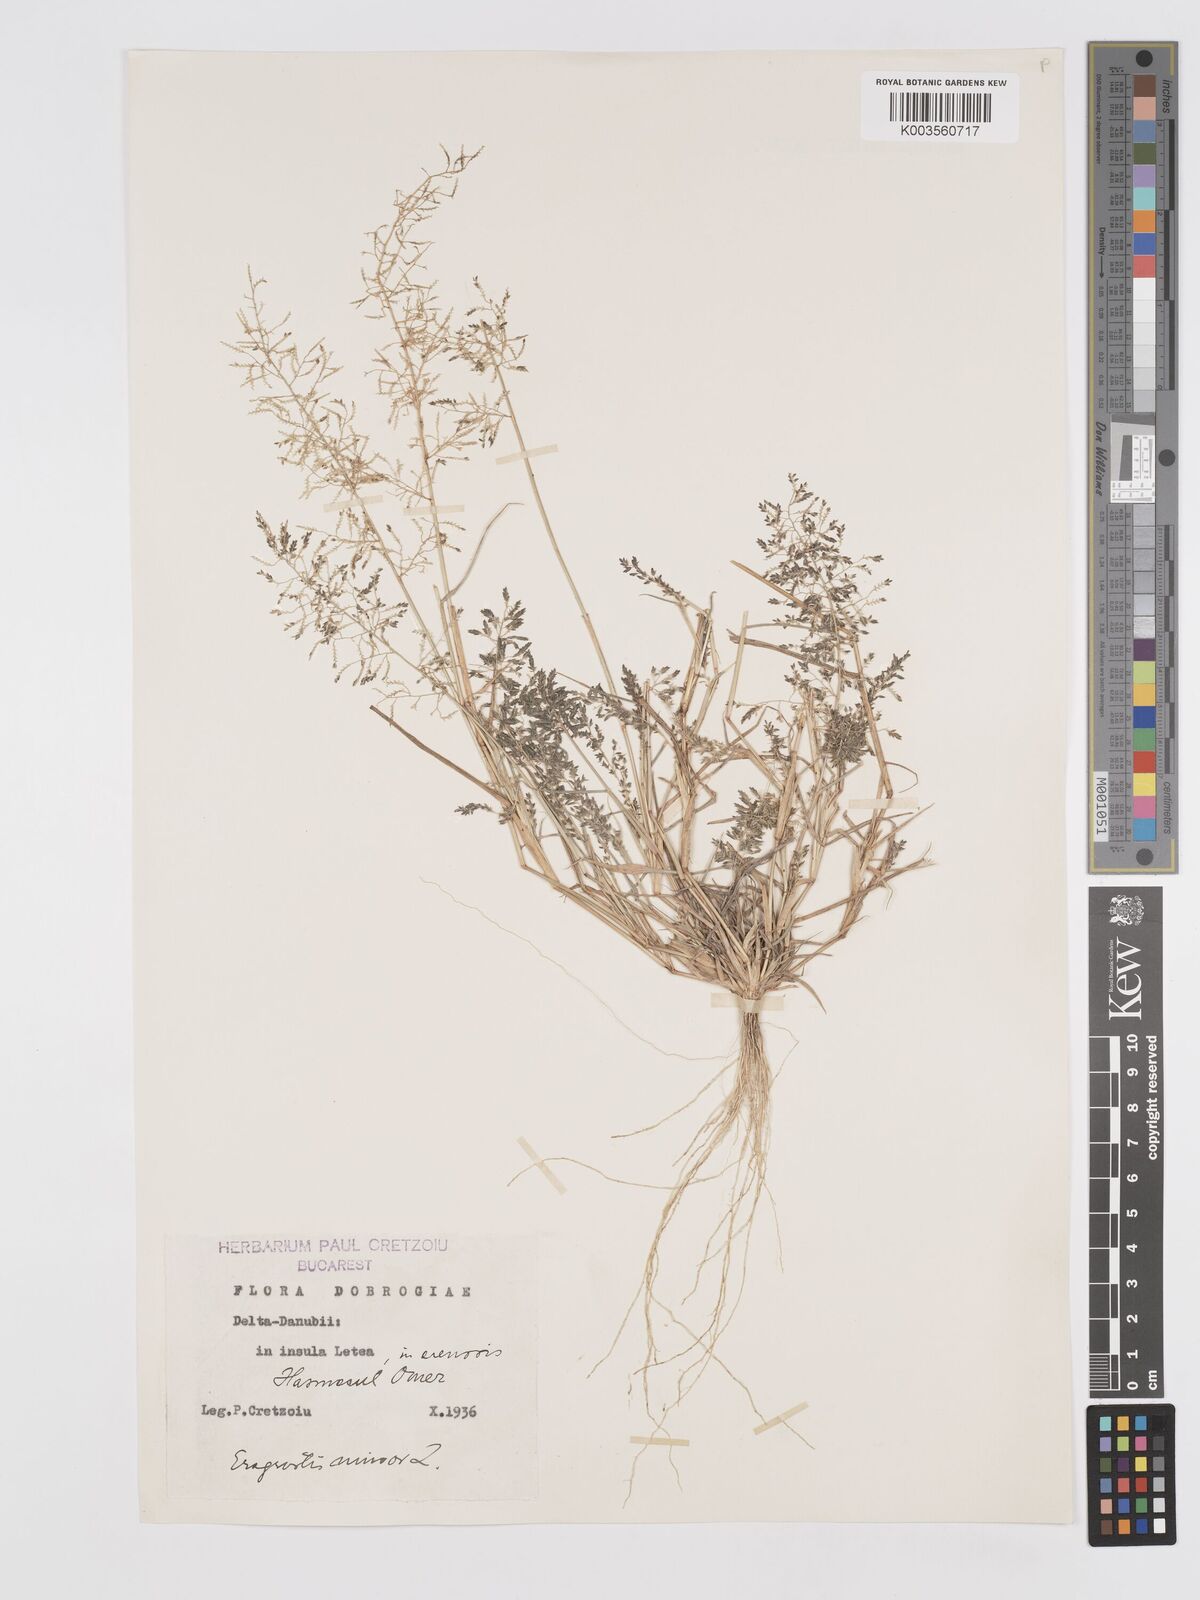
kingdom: Plantae
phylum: Tracheophyta
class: Liliopsida
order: Poales
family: Poaceae
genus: Eragrostis
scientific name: Eragrostis minor
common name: Small love-grass
